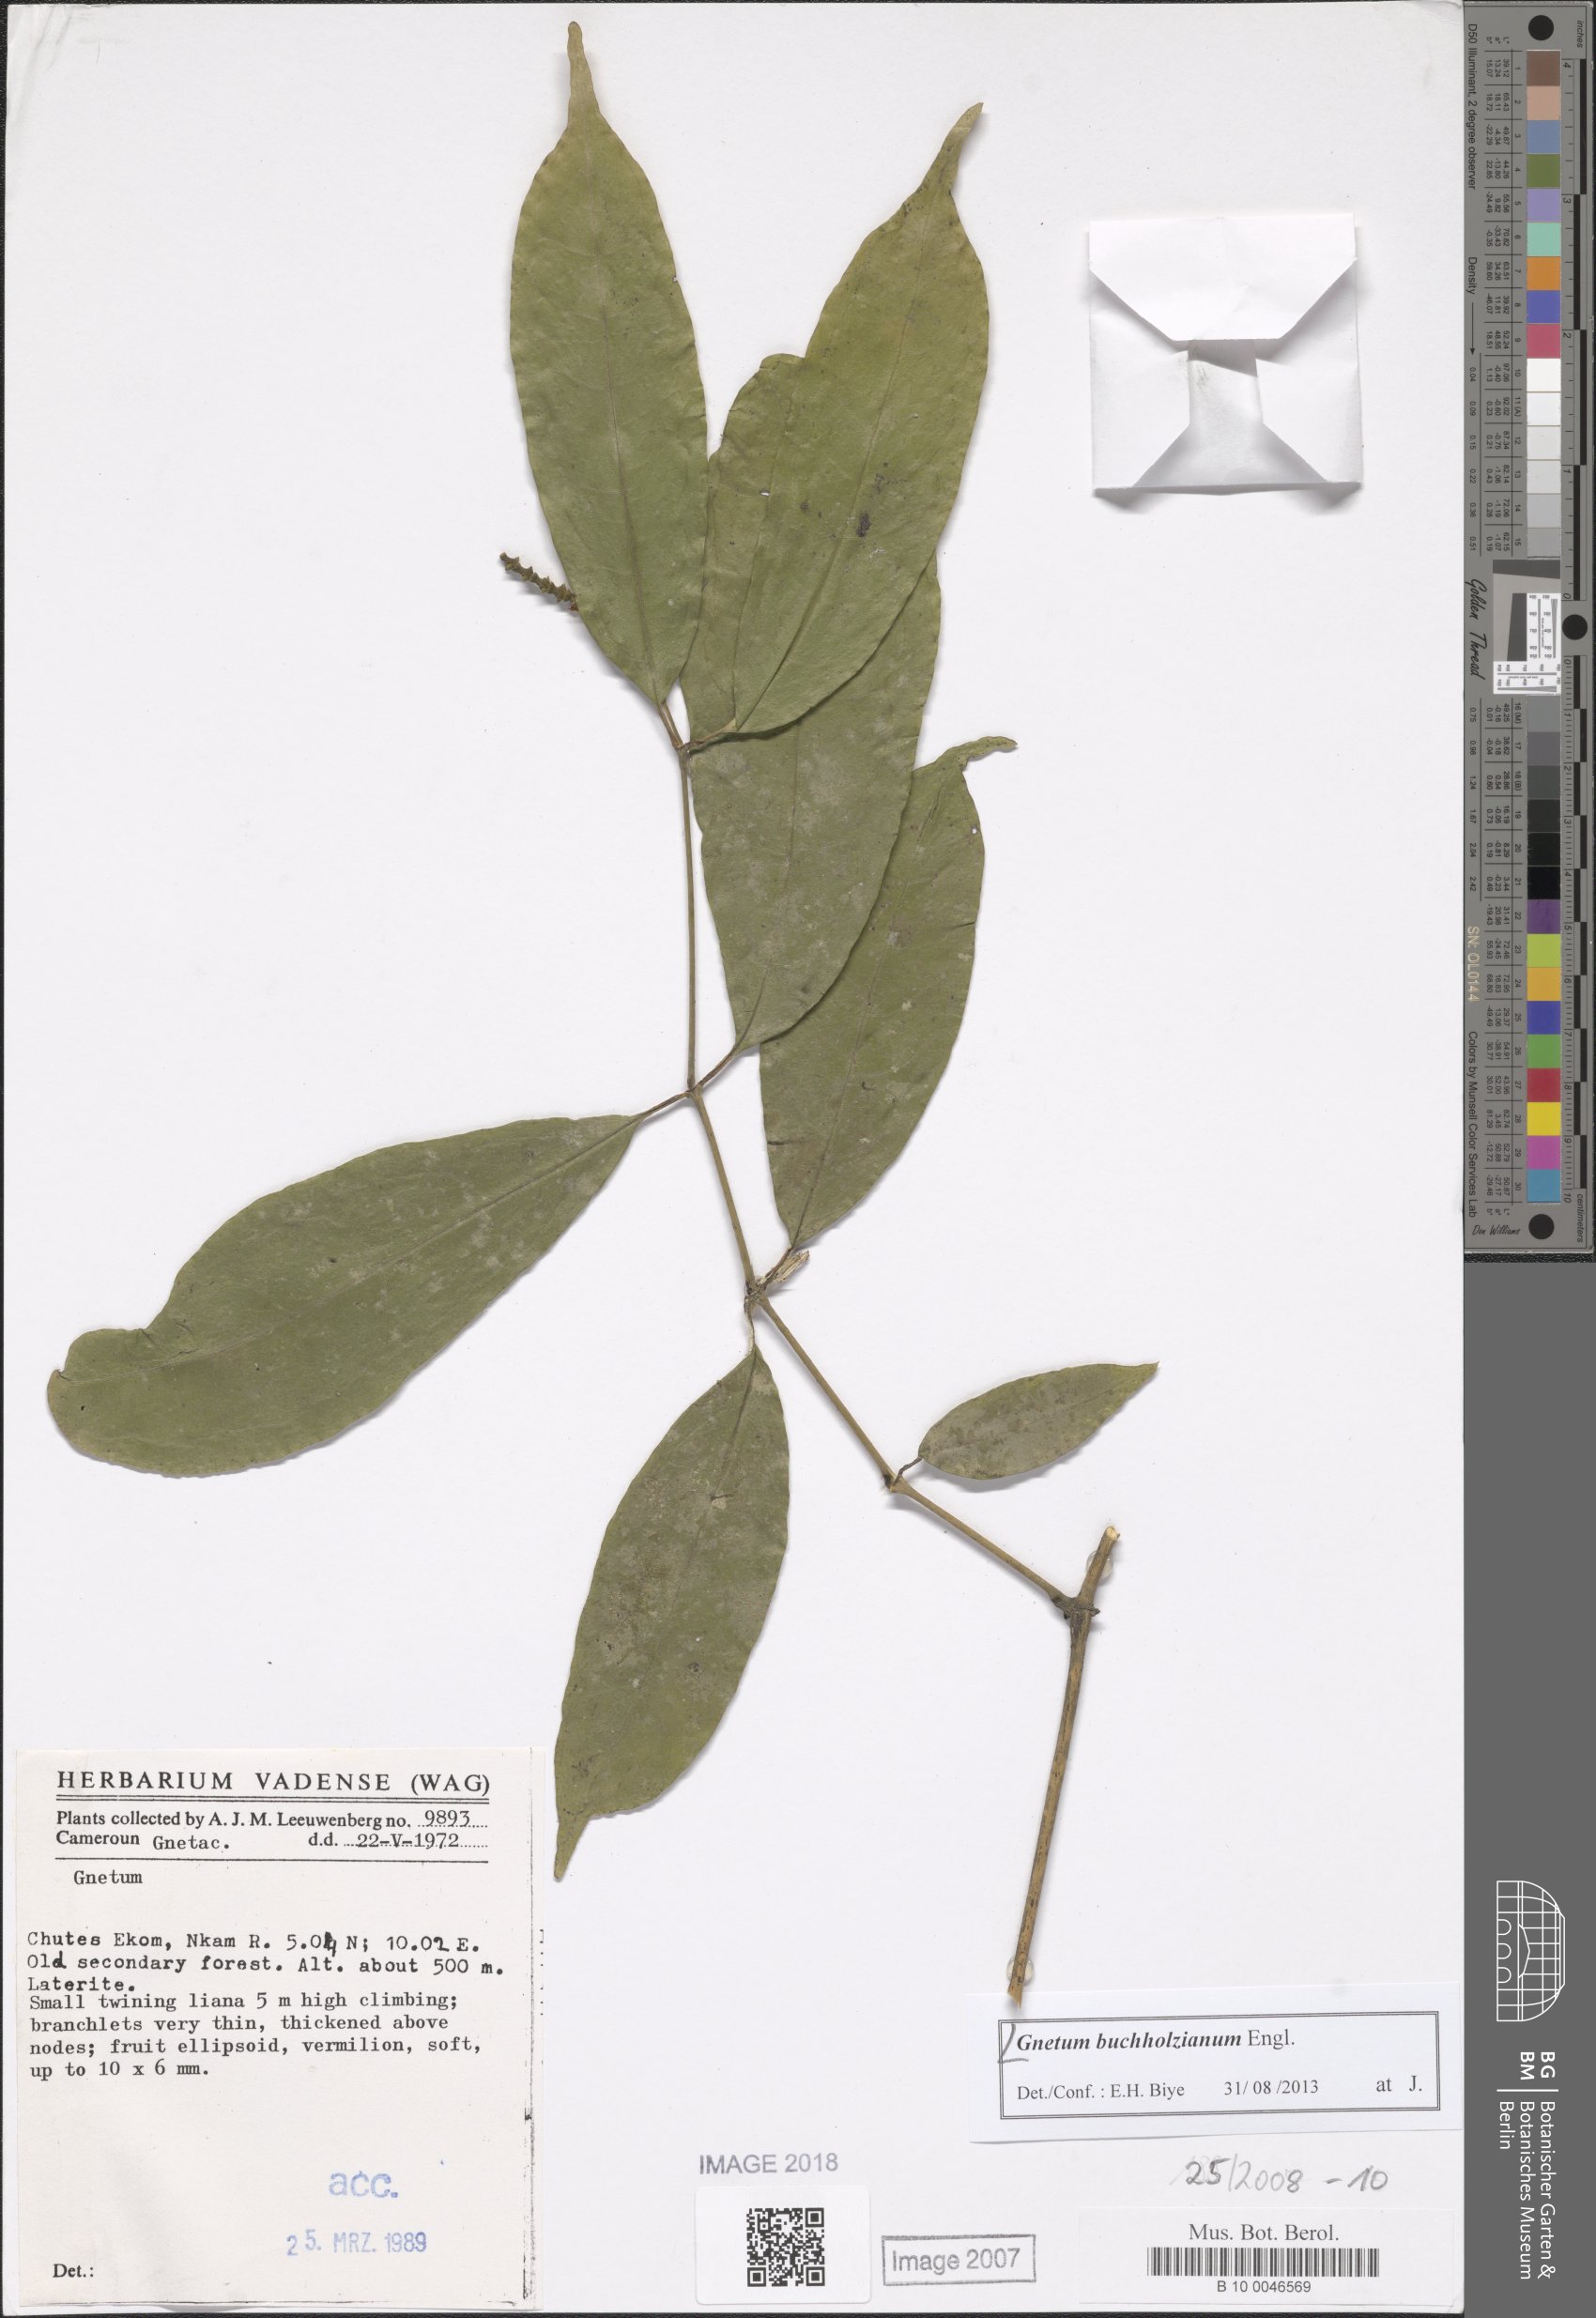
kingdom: Plantae
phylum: Tracheophyta
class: Gnetopsida
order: Gnetales
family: Gnetaceae
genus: Gnetum
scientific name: Gnetum buchholzianum
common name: Eru
